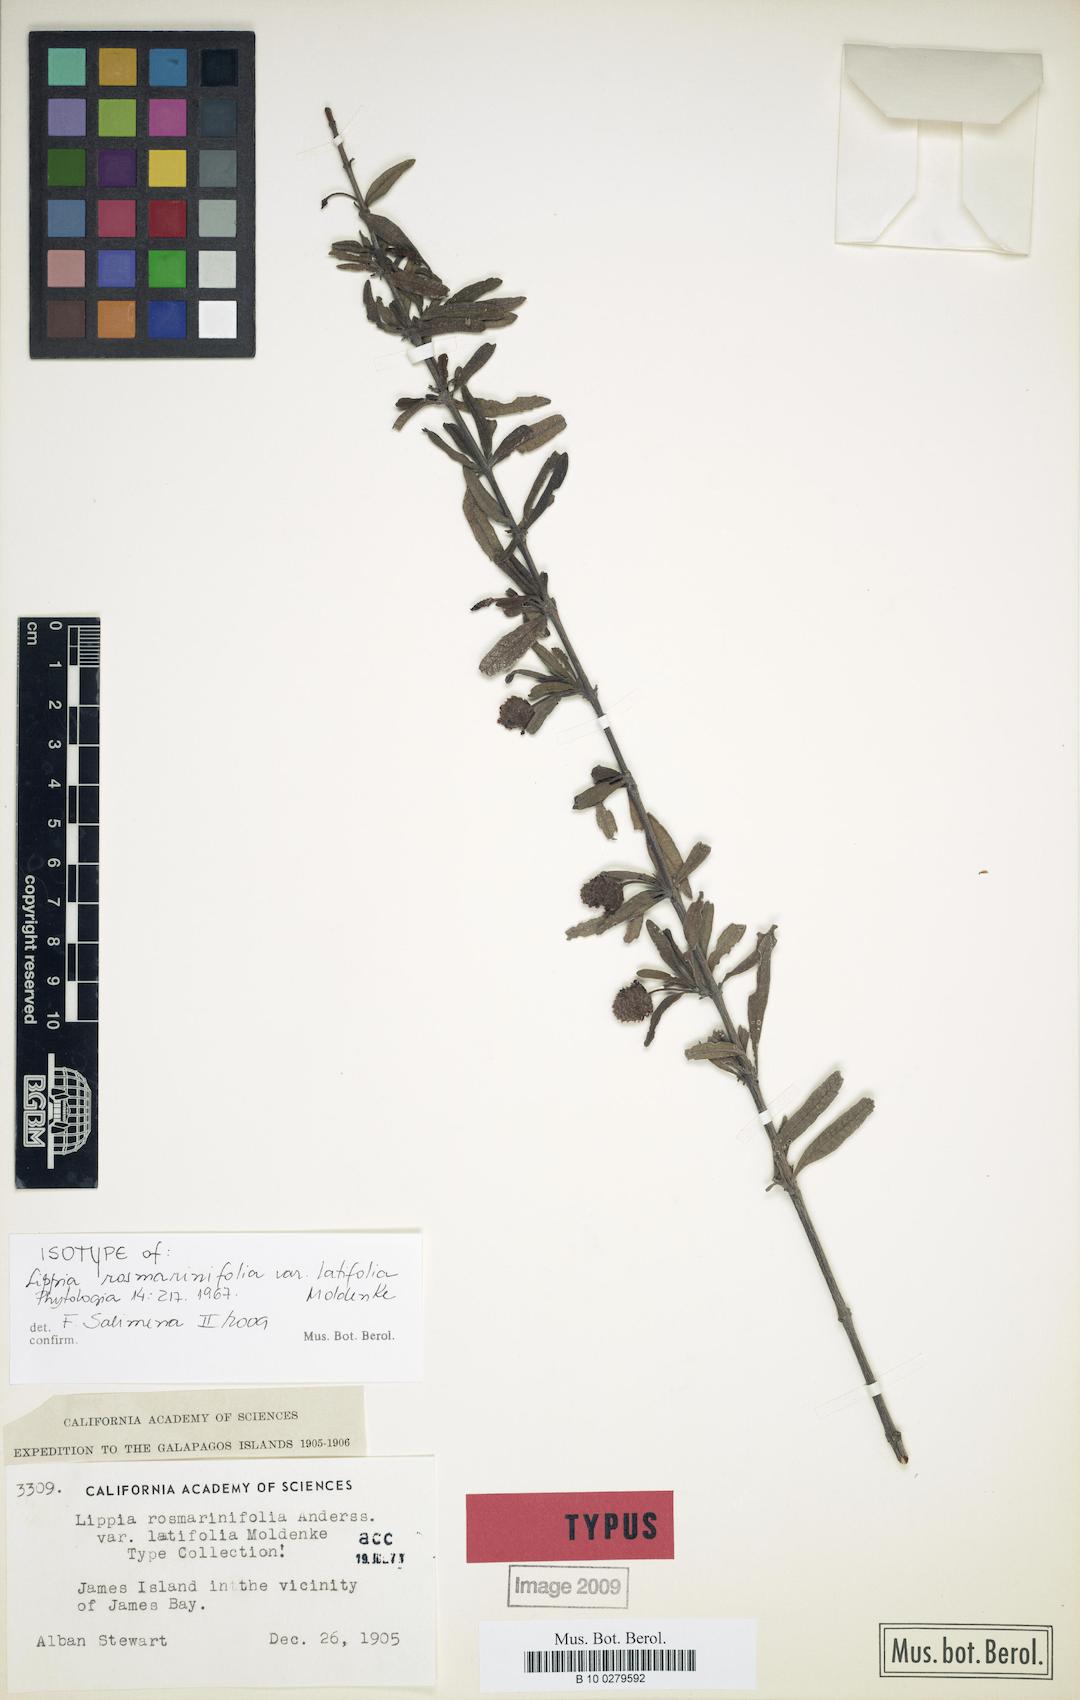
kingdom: Plantae
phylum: Tracheophyta
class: Magnoliopsida
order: Lamiales
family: Verbenaceae
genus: Lippia
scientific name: Lippia rosmarinifolia
